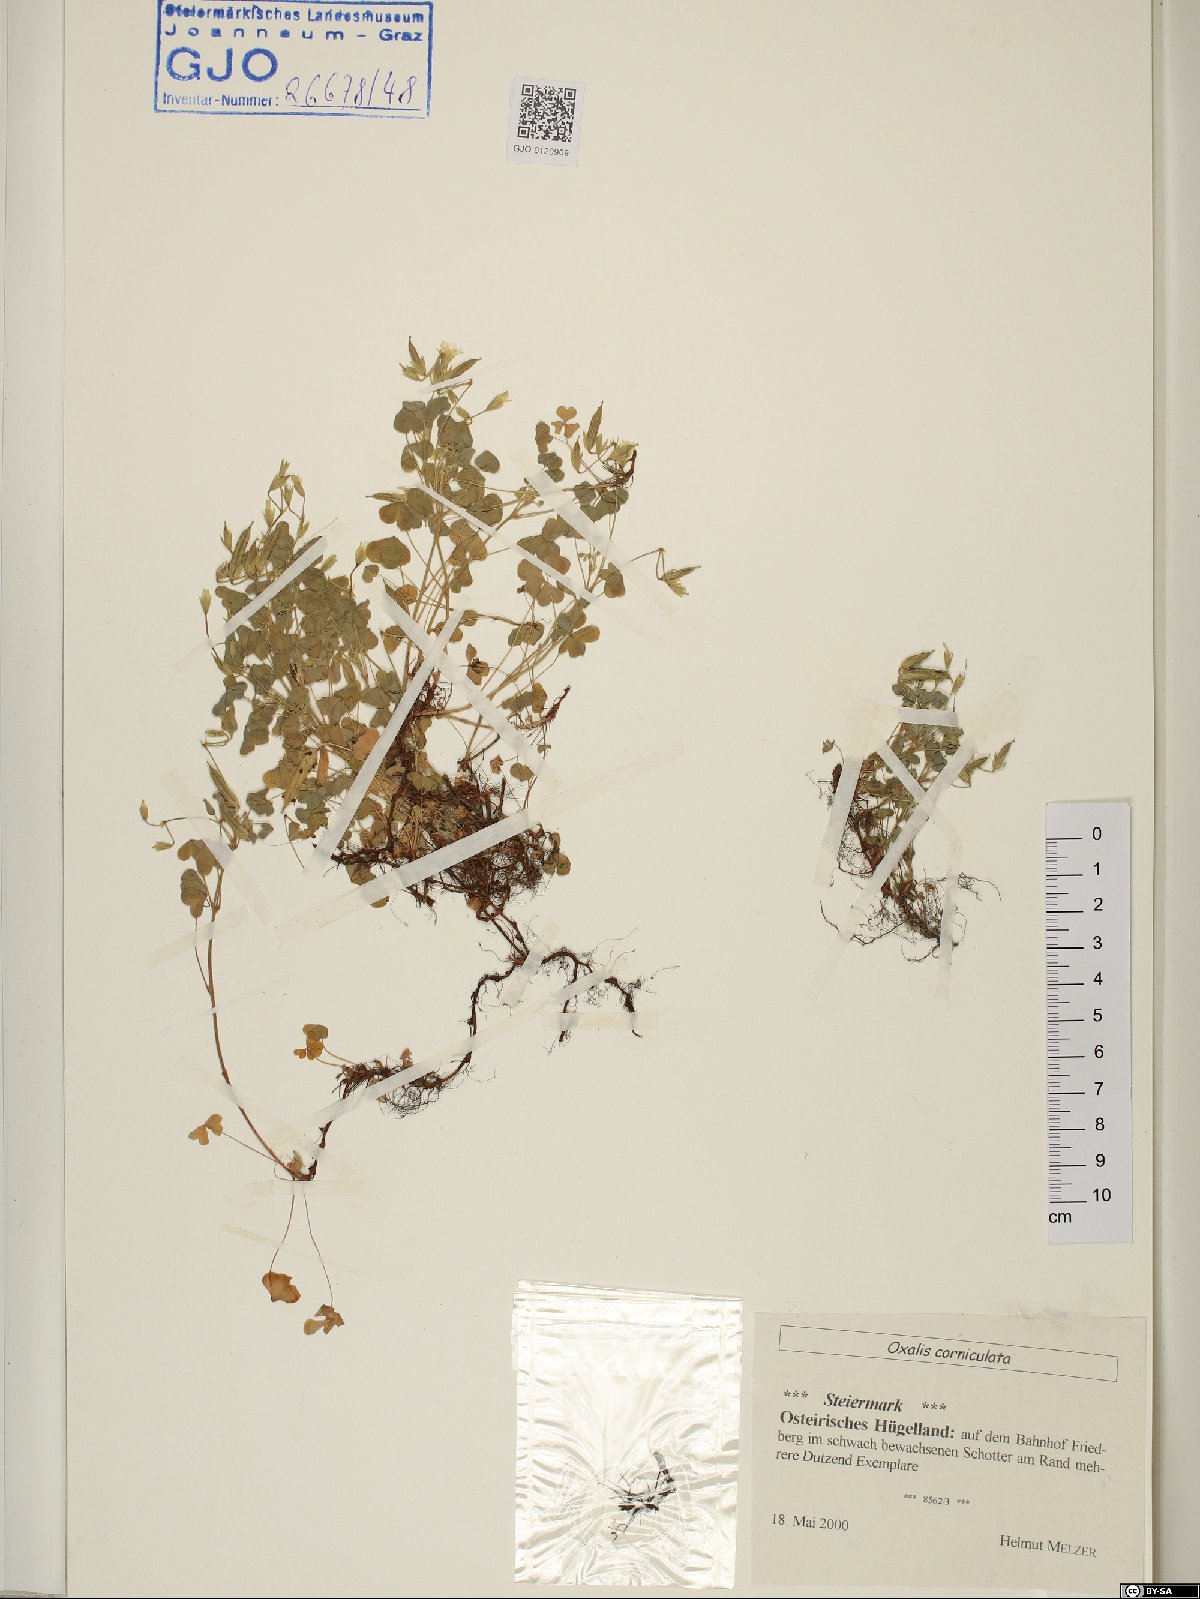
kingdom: Plantae
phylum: Tracheophyta
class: Magnoliopsida
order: Oxalidales
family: Oxalidaceae
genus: Oxalis
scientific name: Oxalis corniculata
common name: Procumbent yellow-sorrel
